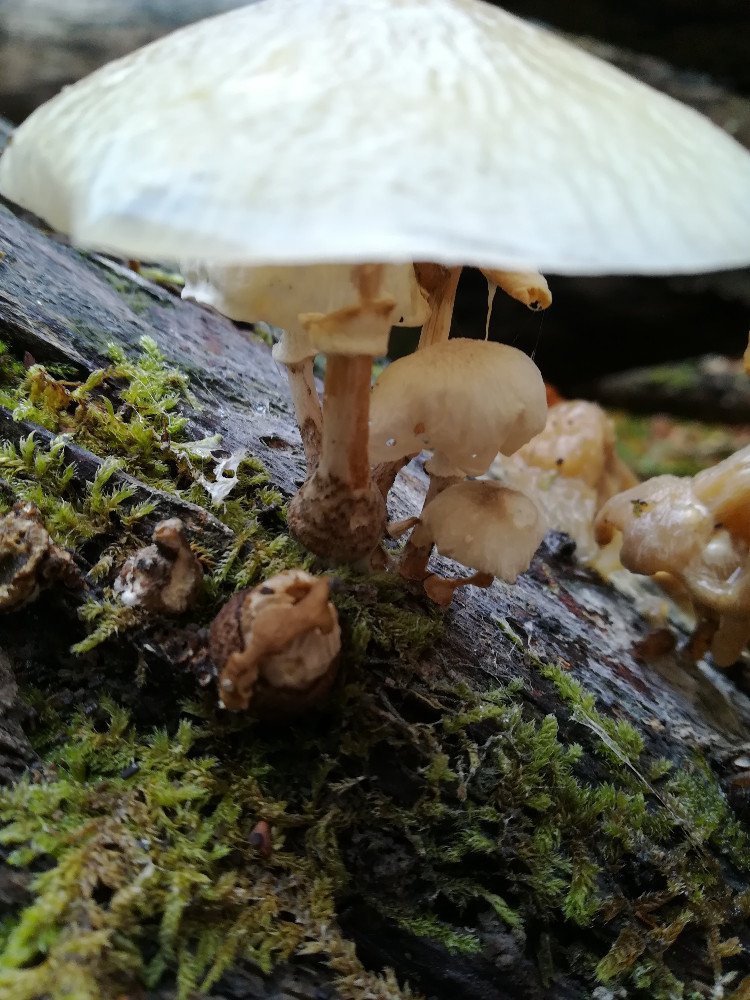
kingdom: Fungi
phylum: Basidiomycota
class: Agaricomycetes
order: Agaricales
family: Physalacriaceae
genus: Mucidula
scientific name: Mucidula mucida
